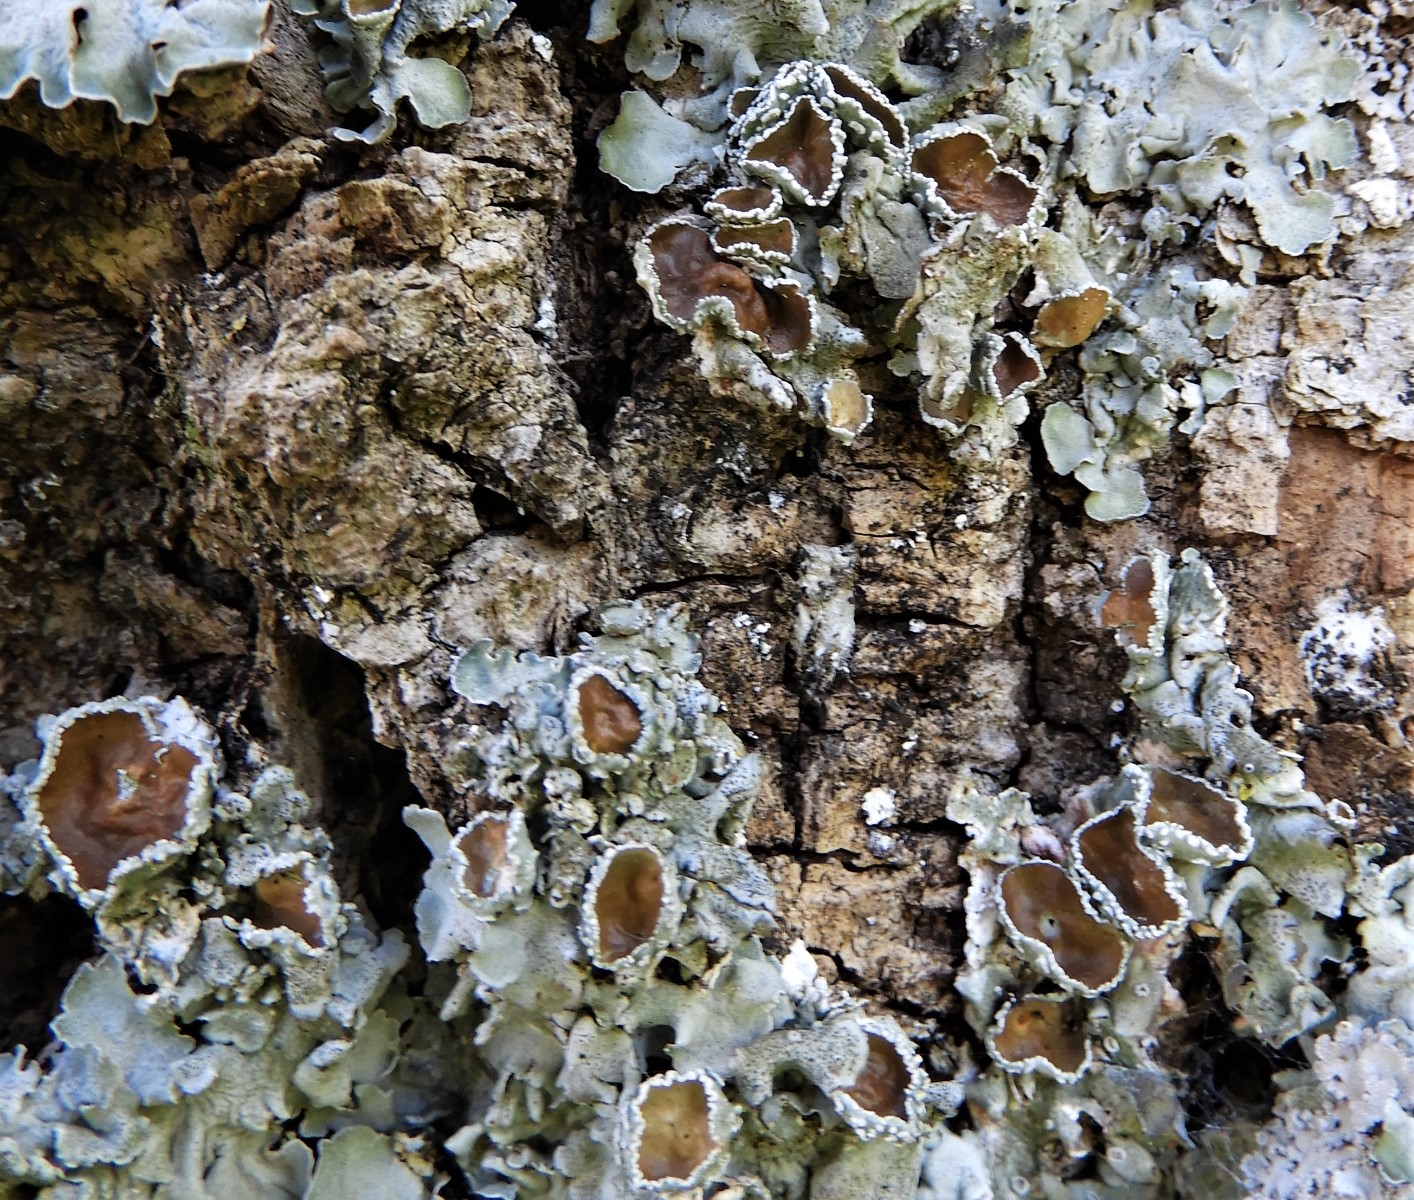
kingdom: Fungi
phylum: Ascomycota
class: Lecanoromycetes
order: Lecanorales
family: Parmeliaceae
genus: Pleurosticta
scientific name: Pleurosticta acetabulum
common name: stor skållav
